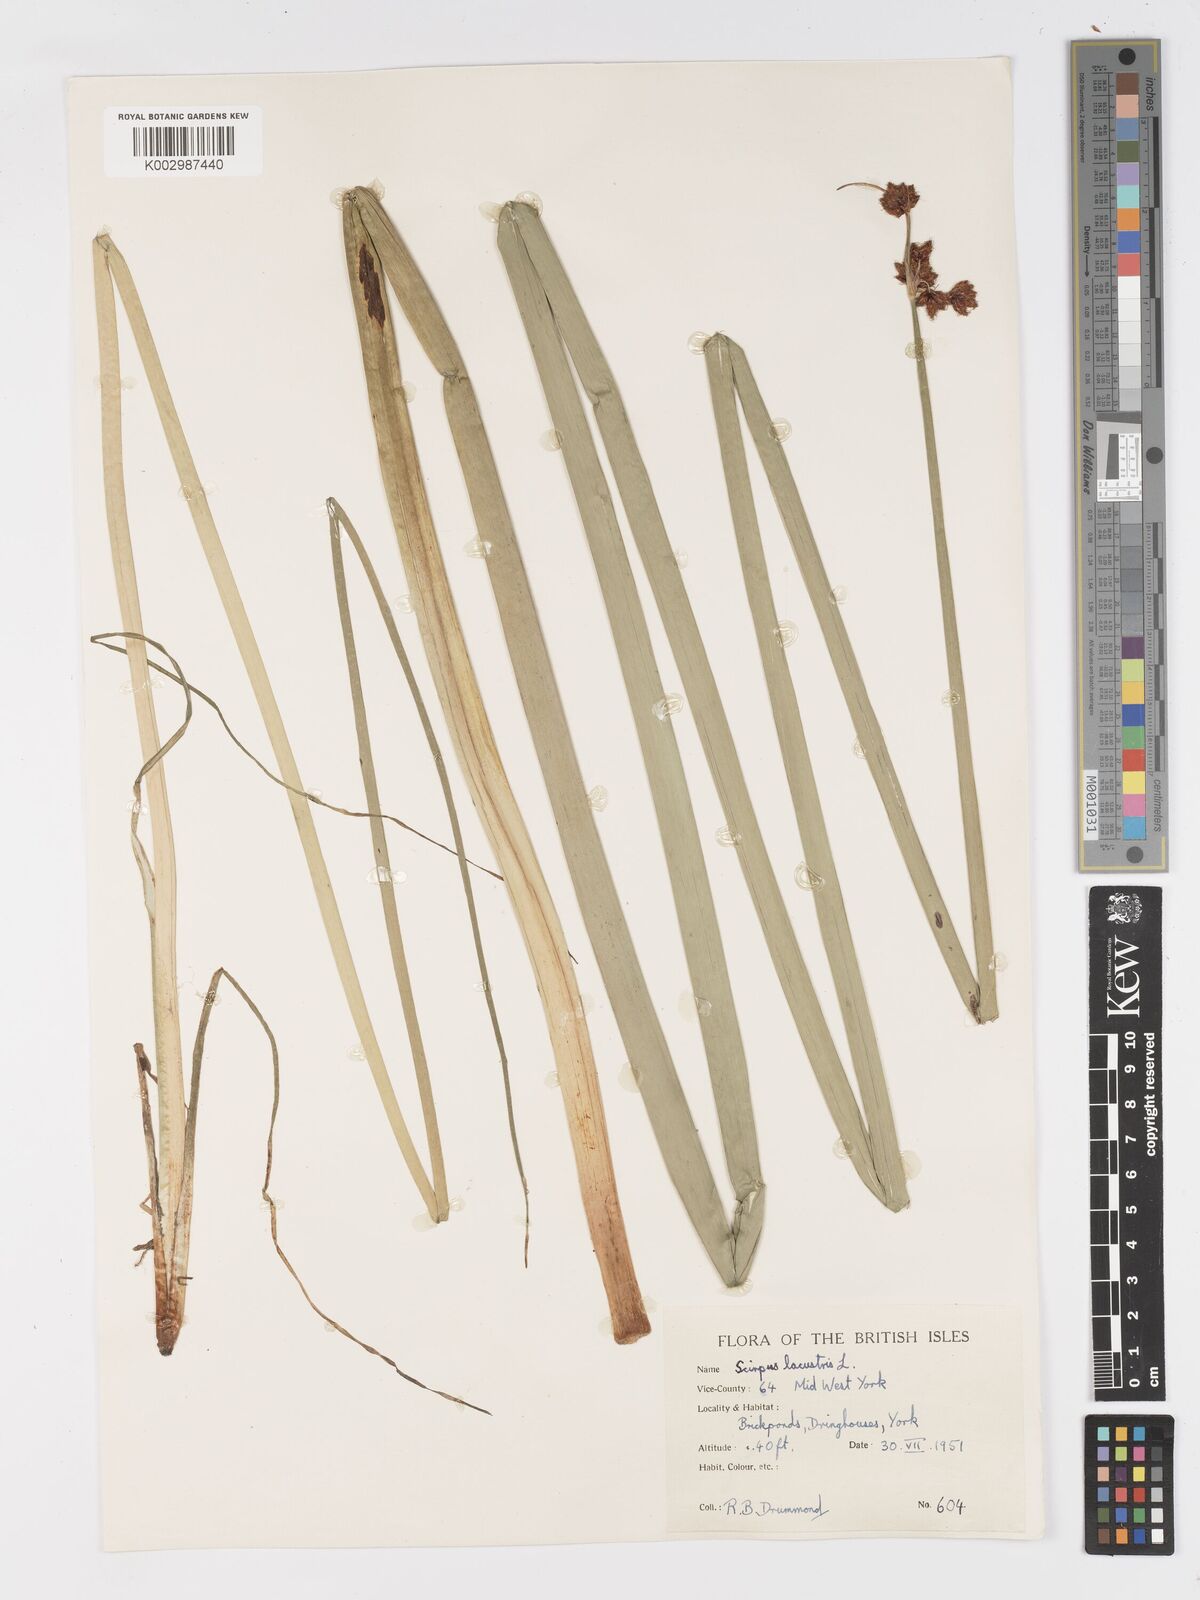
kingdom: Plantae
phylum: Tracheophyta
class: Liliopsida
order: Poales
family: Cyperaceae
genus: Schoenoplectus
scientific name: Schoenoplectus lacustris
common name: Common club-rush
